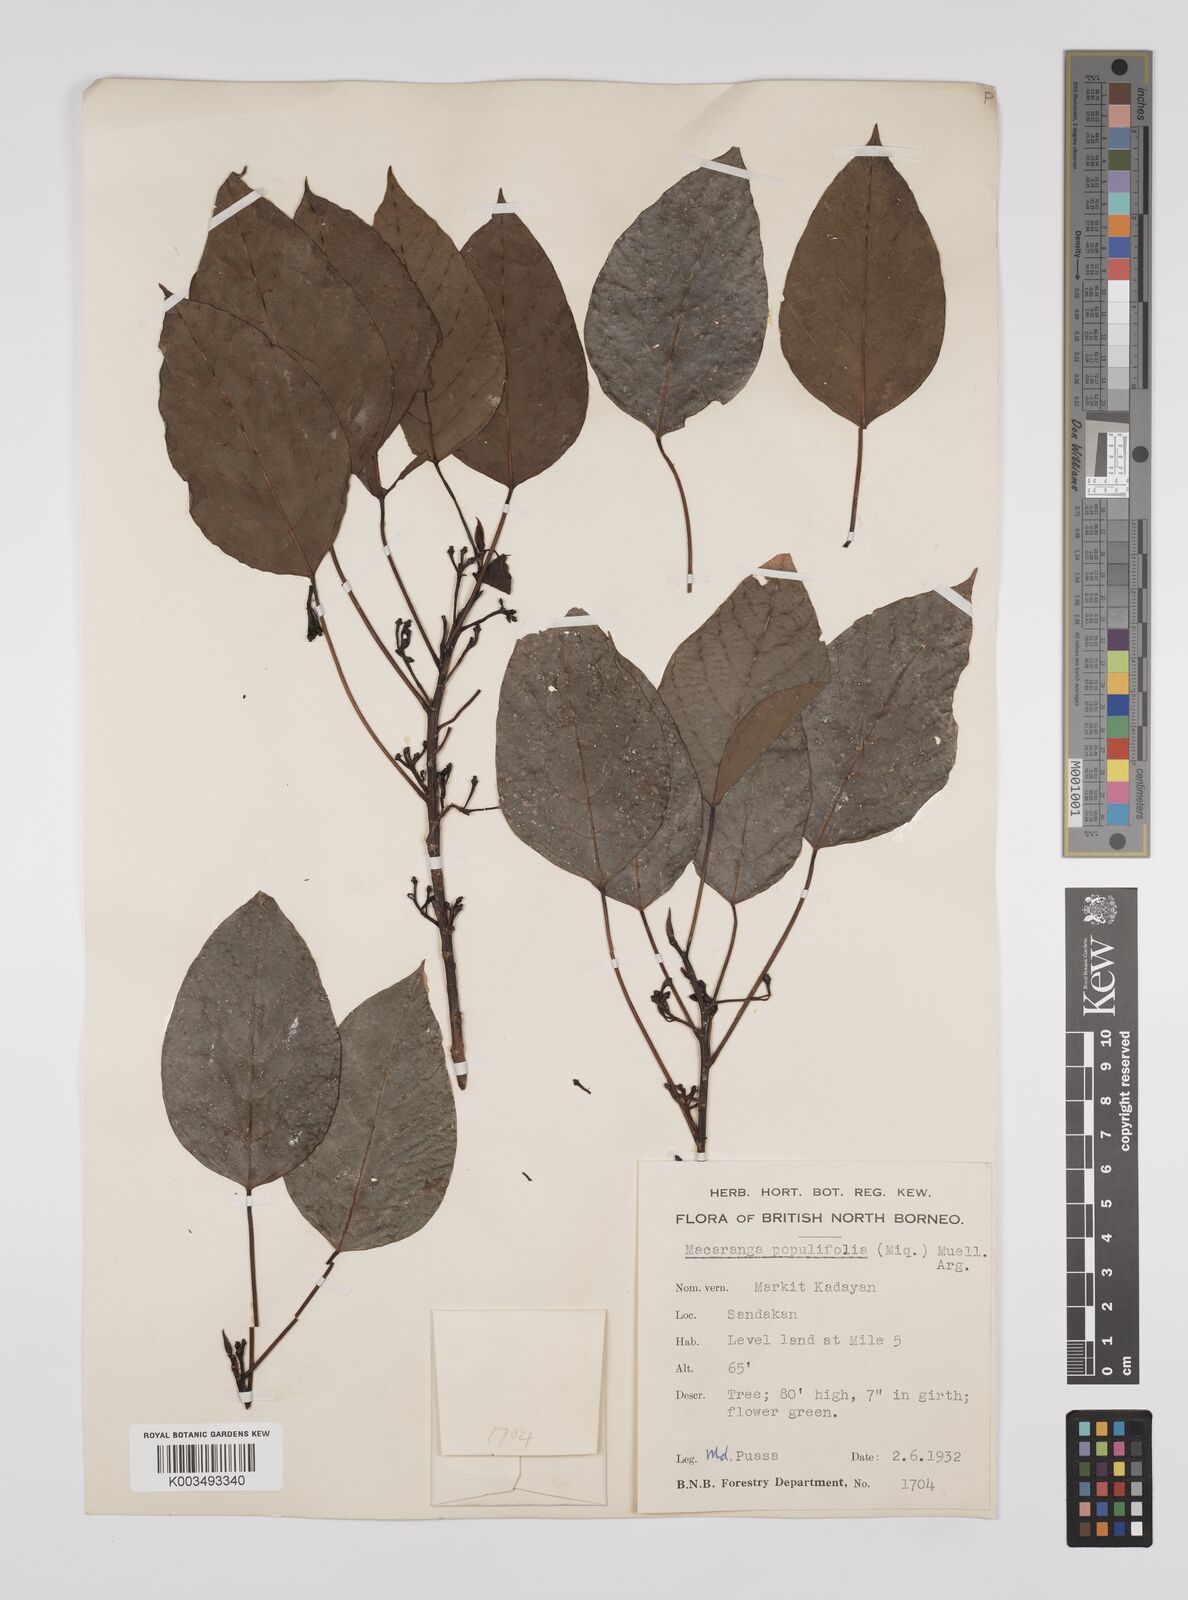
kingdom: Plantae
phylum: Tracheophyta
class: Magnoliopsida
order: Malpighiales
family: Euphorbiaceae
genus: Macaranga
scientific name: Macaranga conifera
